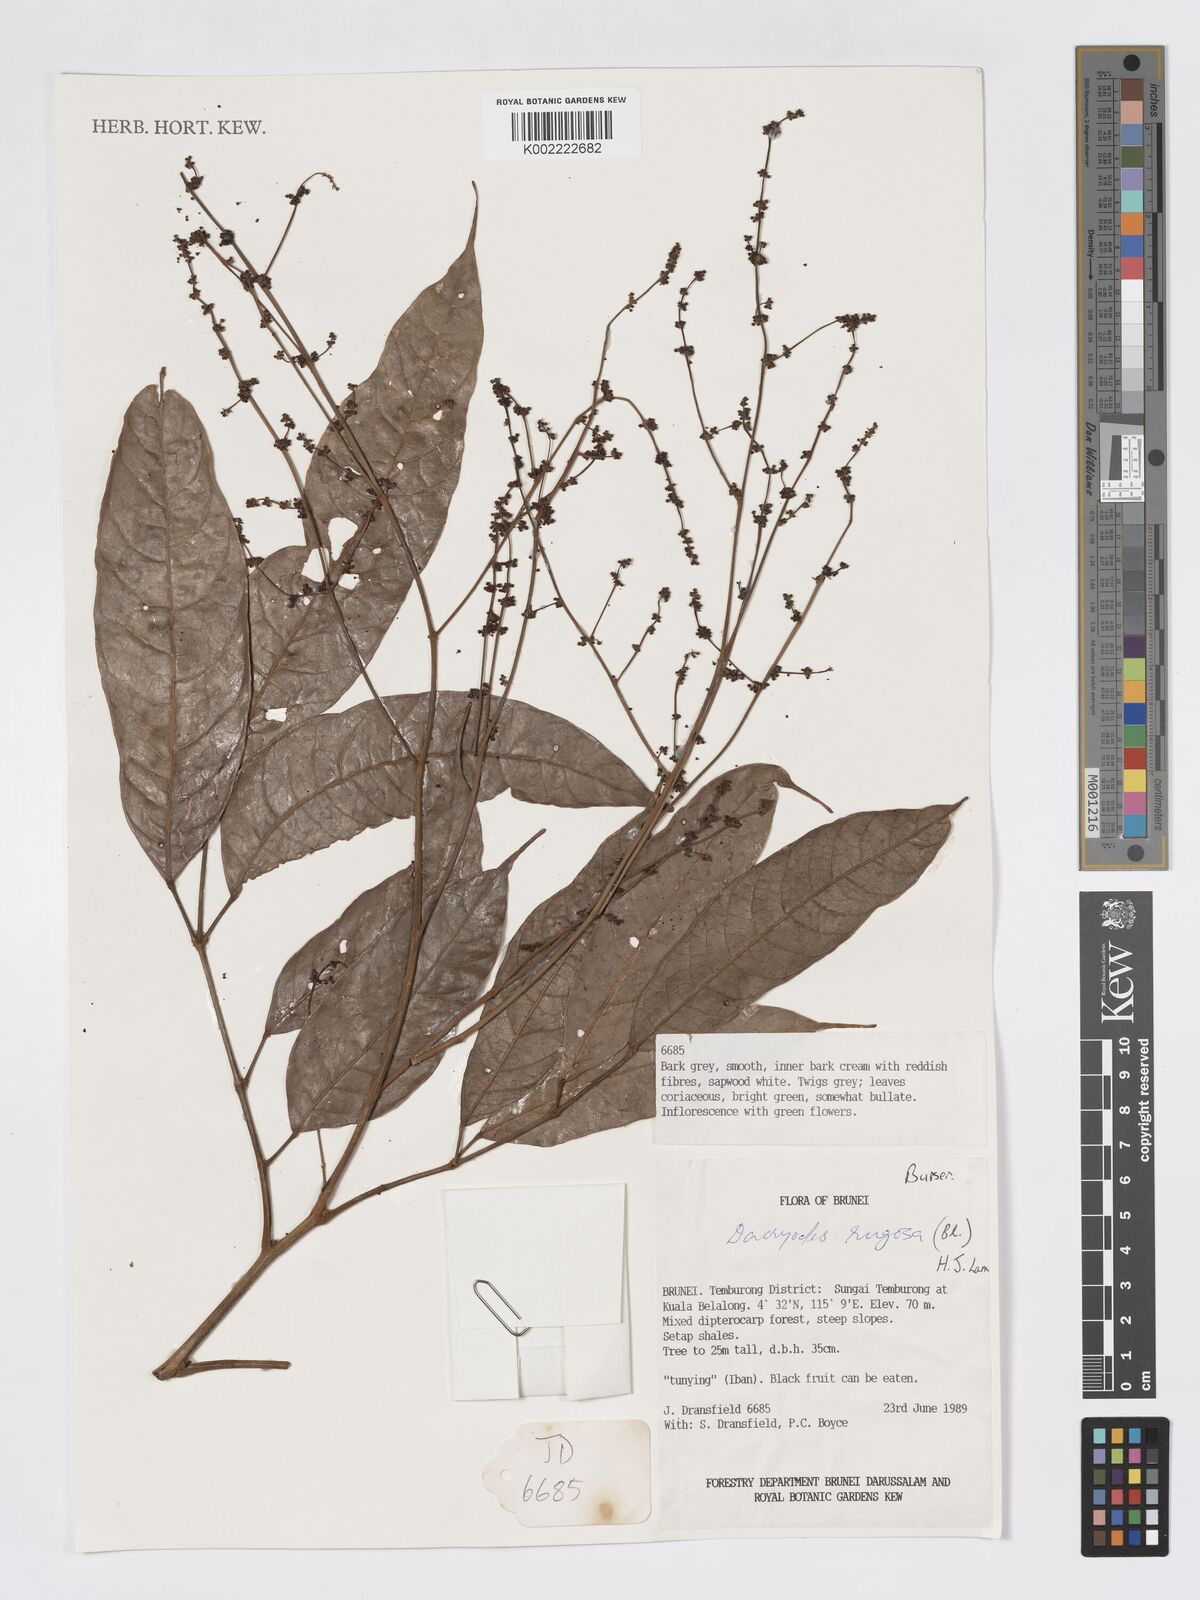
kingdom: Plantae
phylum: Tracheophyta
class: Magnoliopsida
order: Sapindales
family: Burseraceae
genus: Dacryodes
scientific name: Dacryodes rugosa
